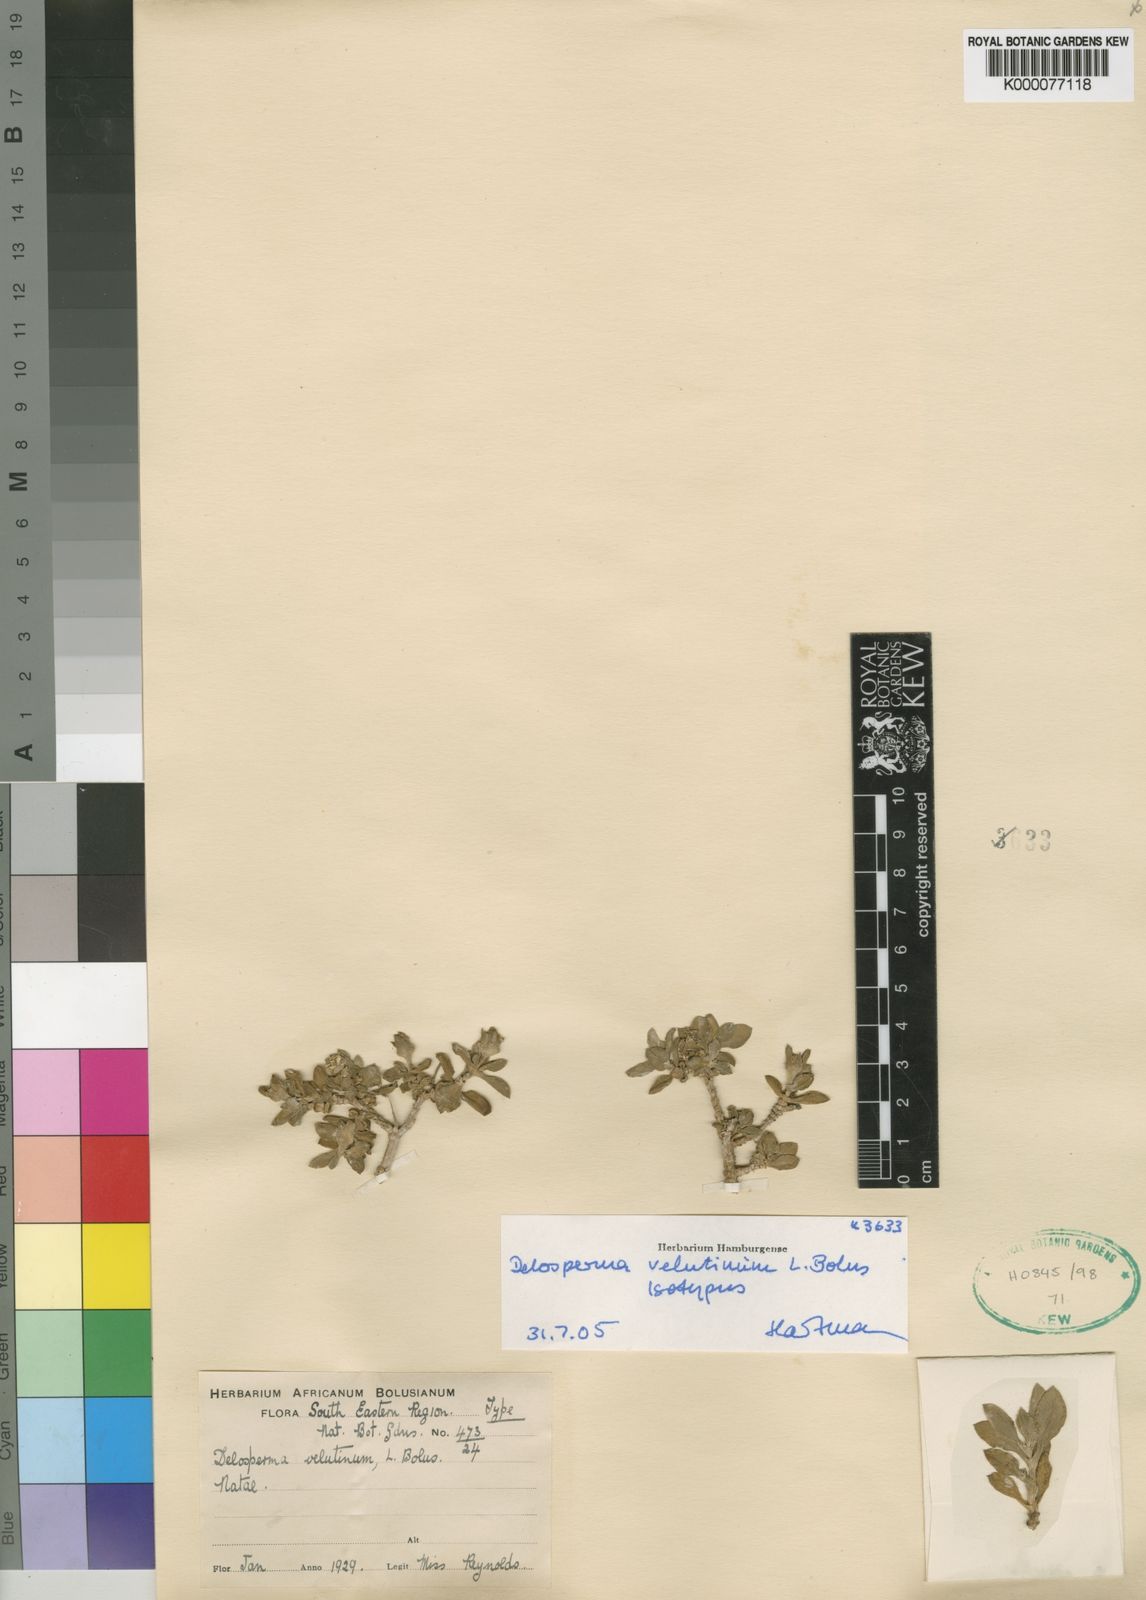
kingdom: Plantae
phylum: Tracheophyta
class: Magnoliopsida
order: Caryophyllales
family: Aizoaceae
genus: Delosperma
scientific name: Delosperma velutinum
